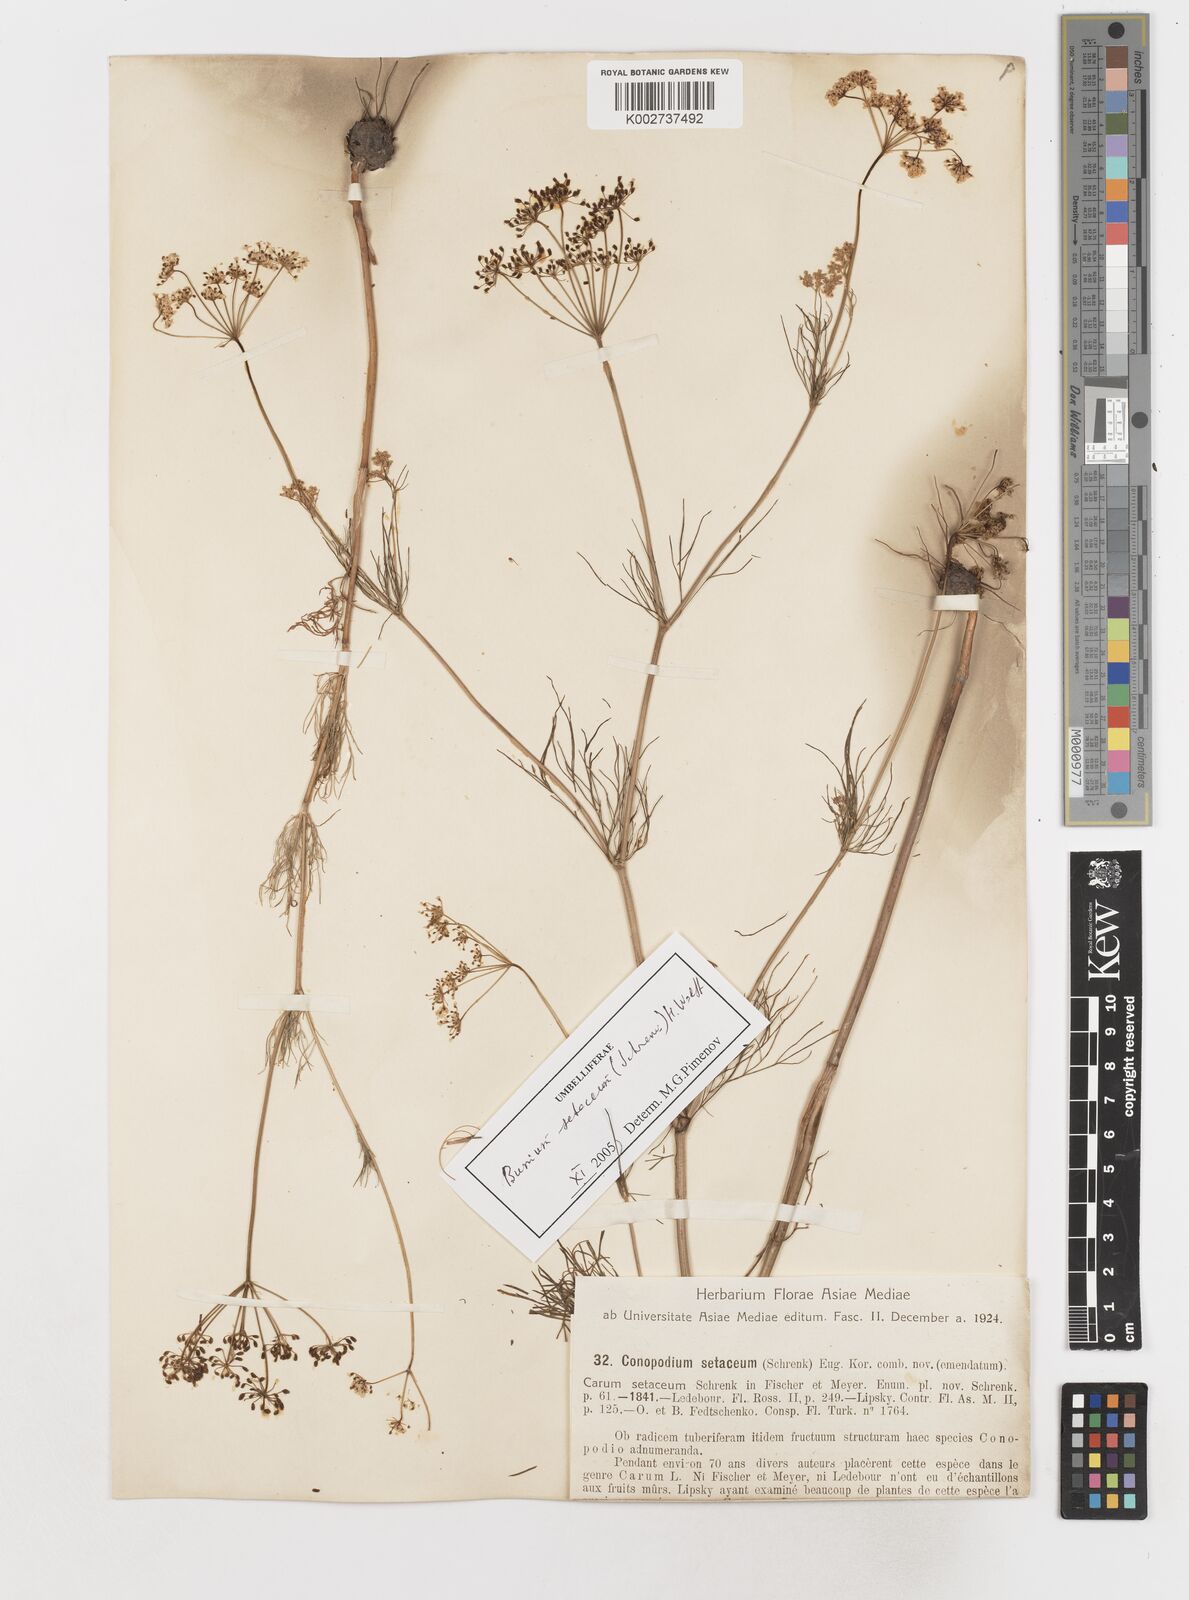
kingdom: Plantae
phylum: Tracheophyta
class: Magnoliopsida
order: Apiales
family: Apiaceae
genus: Elwendia
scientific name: Elwendia setacea
